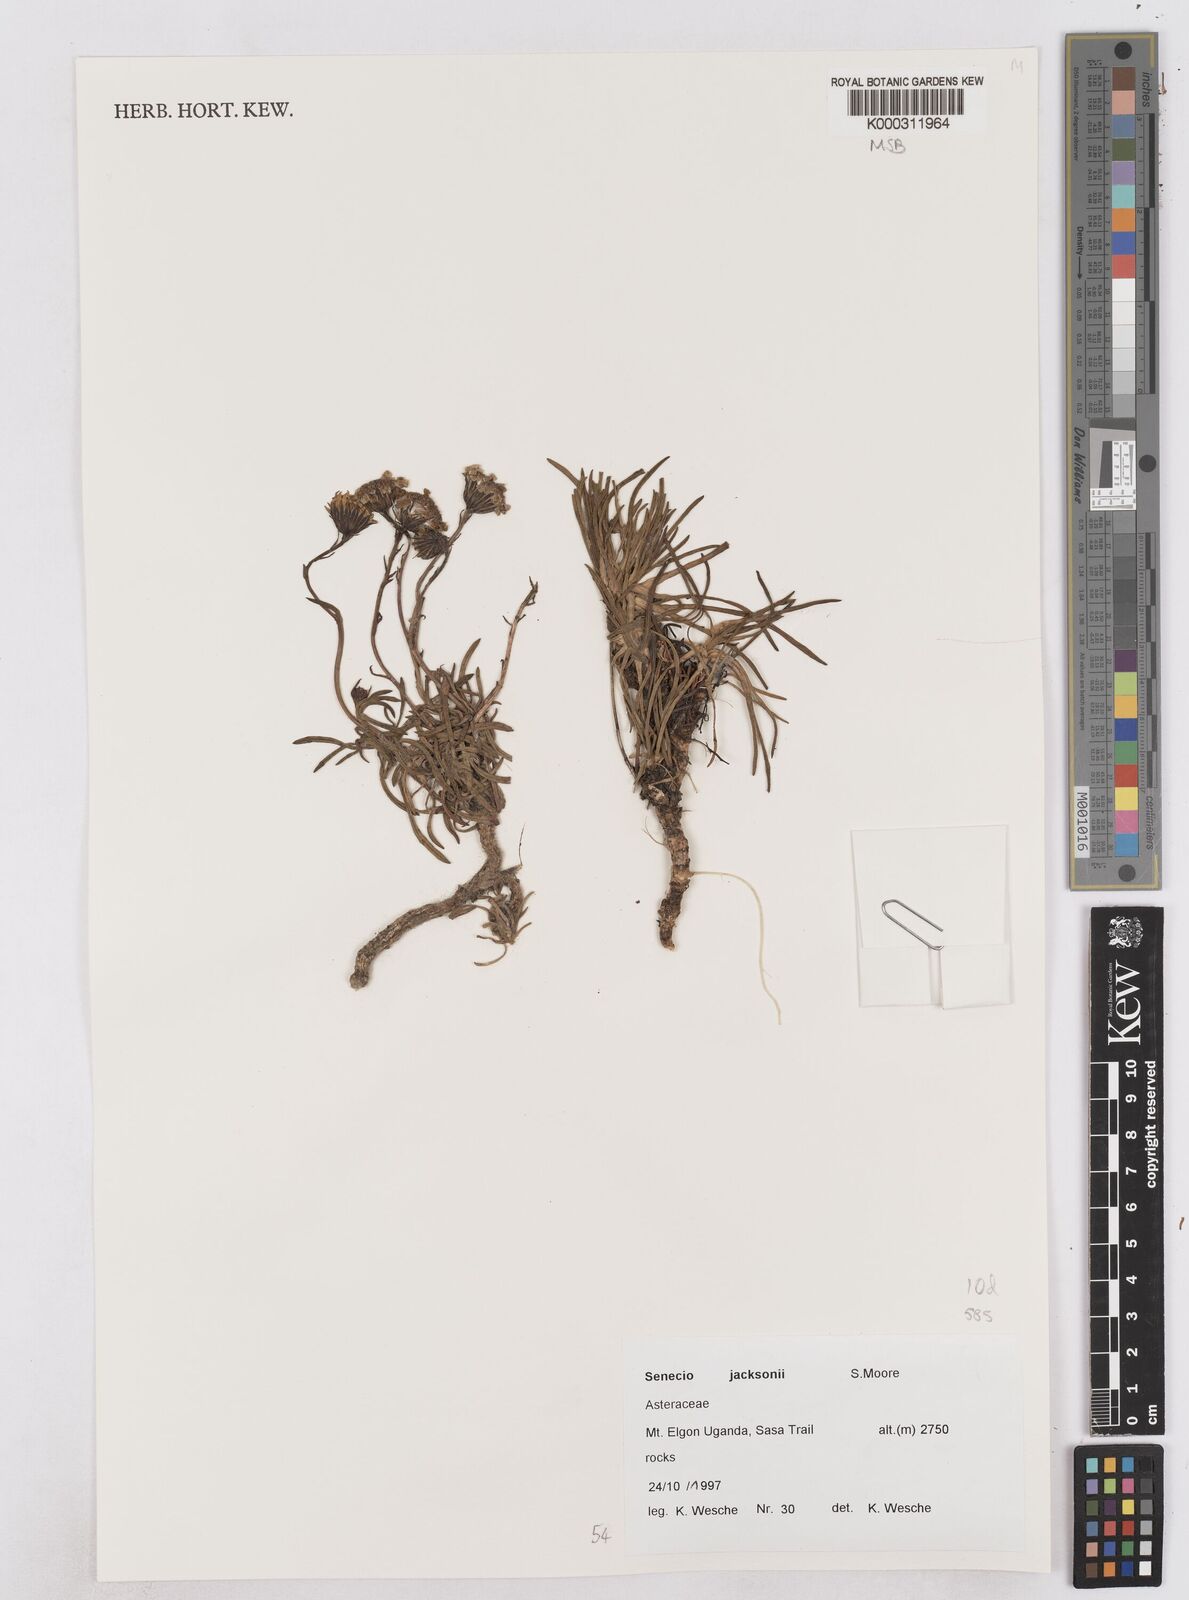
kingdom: Plantae
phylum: Tracheophyta
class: Magnoliopsida
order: Asterales
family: Asteraceae
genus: Senecio
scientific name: Senecio jacksonii
